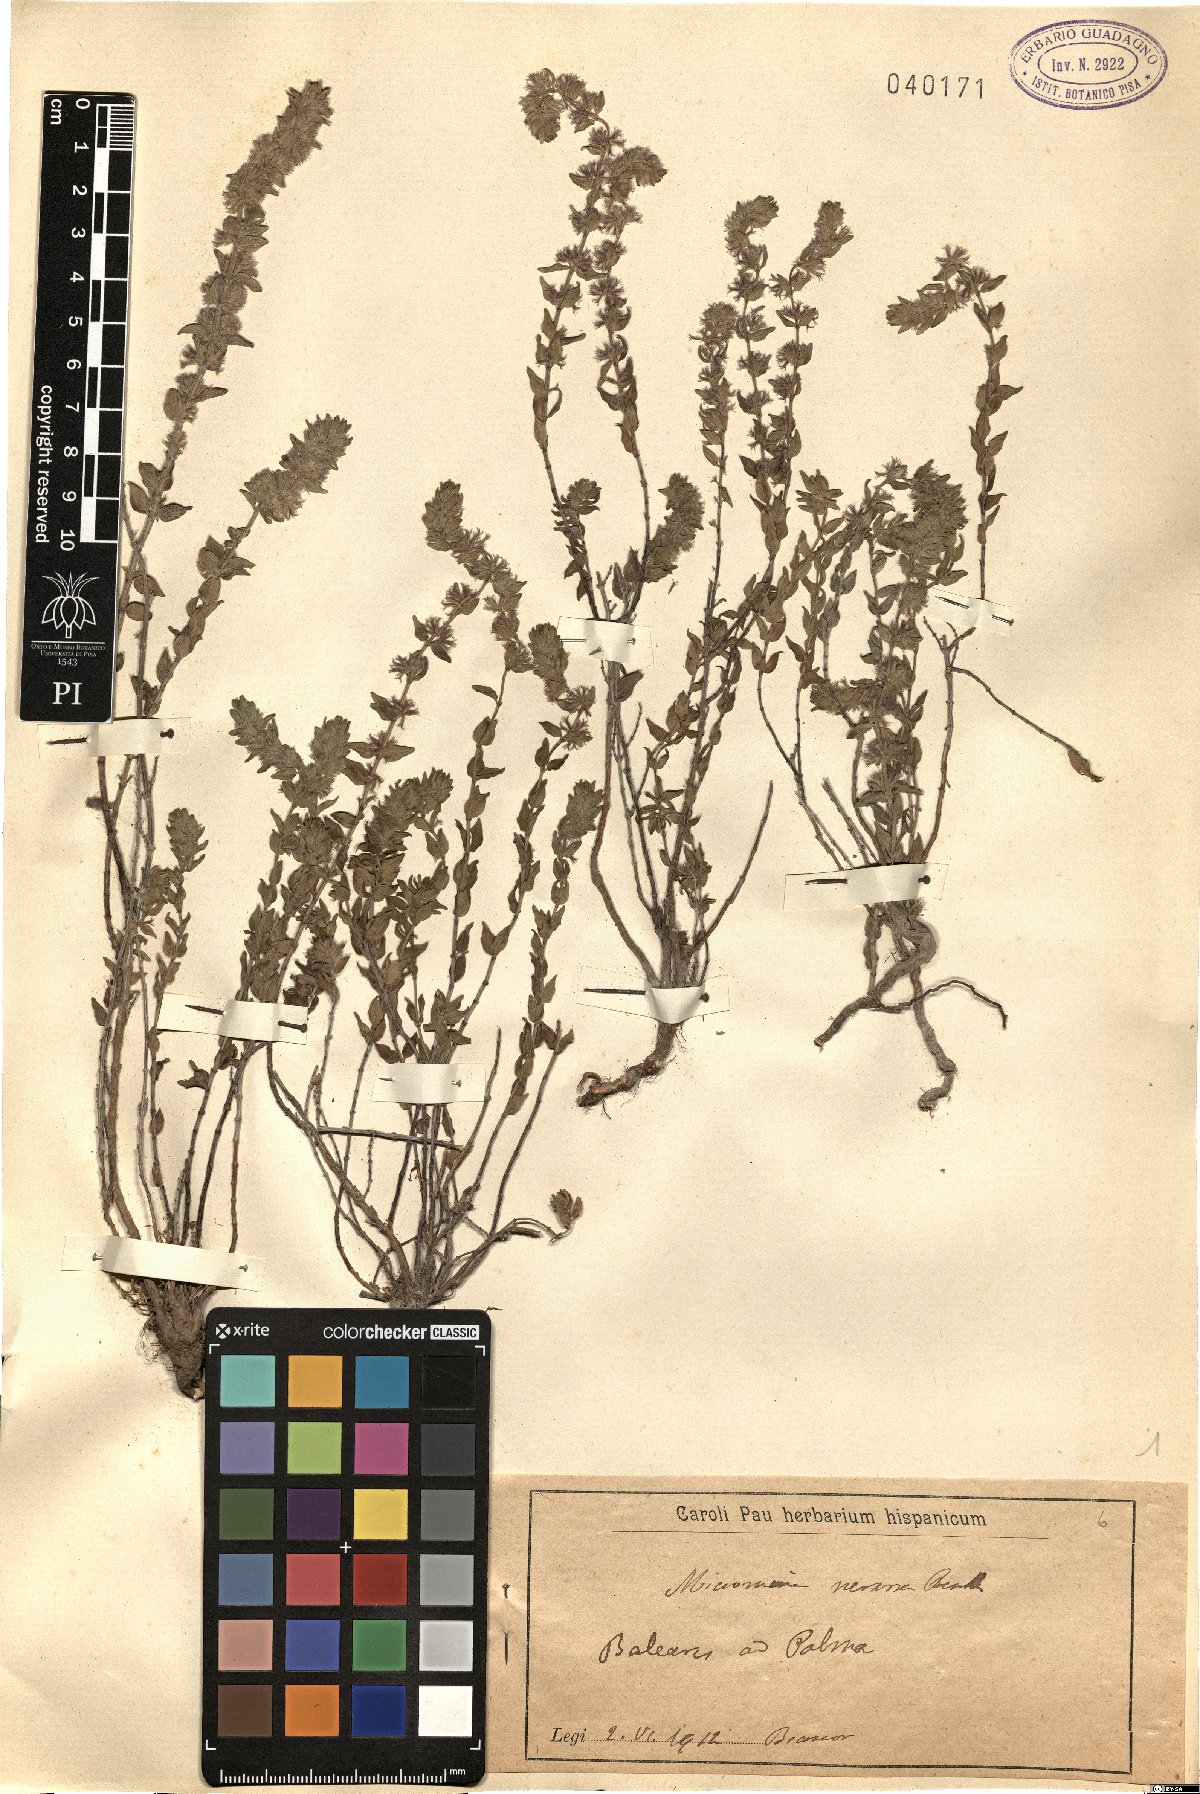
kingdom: Plantae
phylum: Tracheophyta
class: Magnoliopsida
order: Lamiales
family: Lamiaceae
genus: Micromeria
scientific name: Micromeria nervosa
